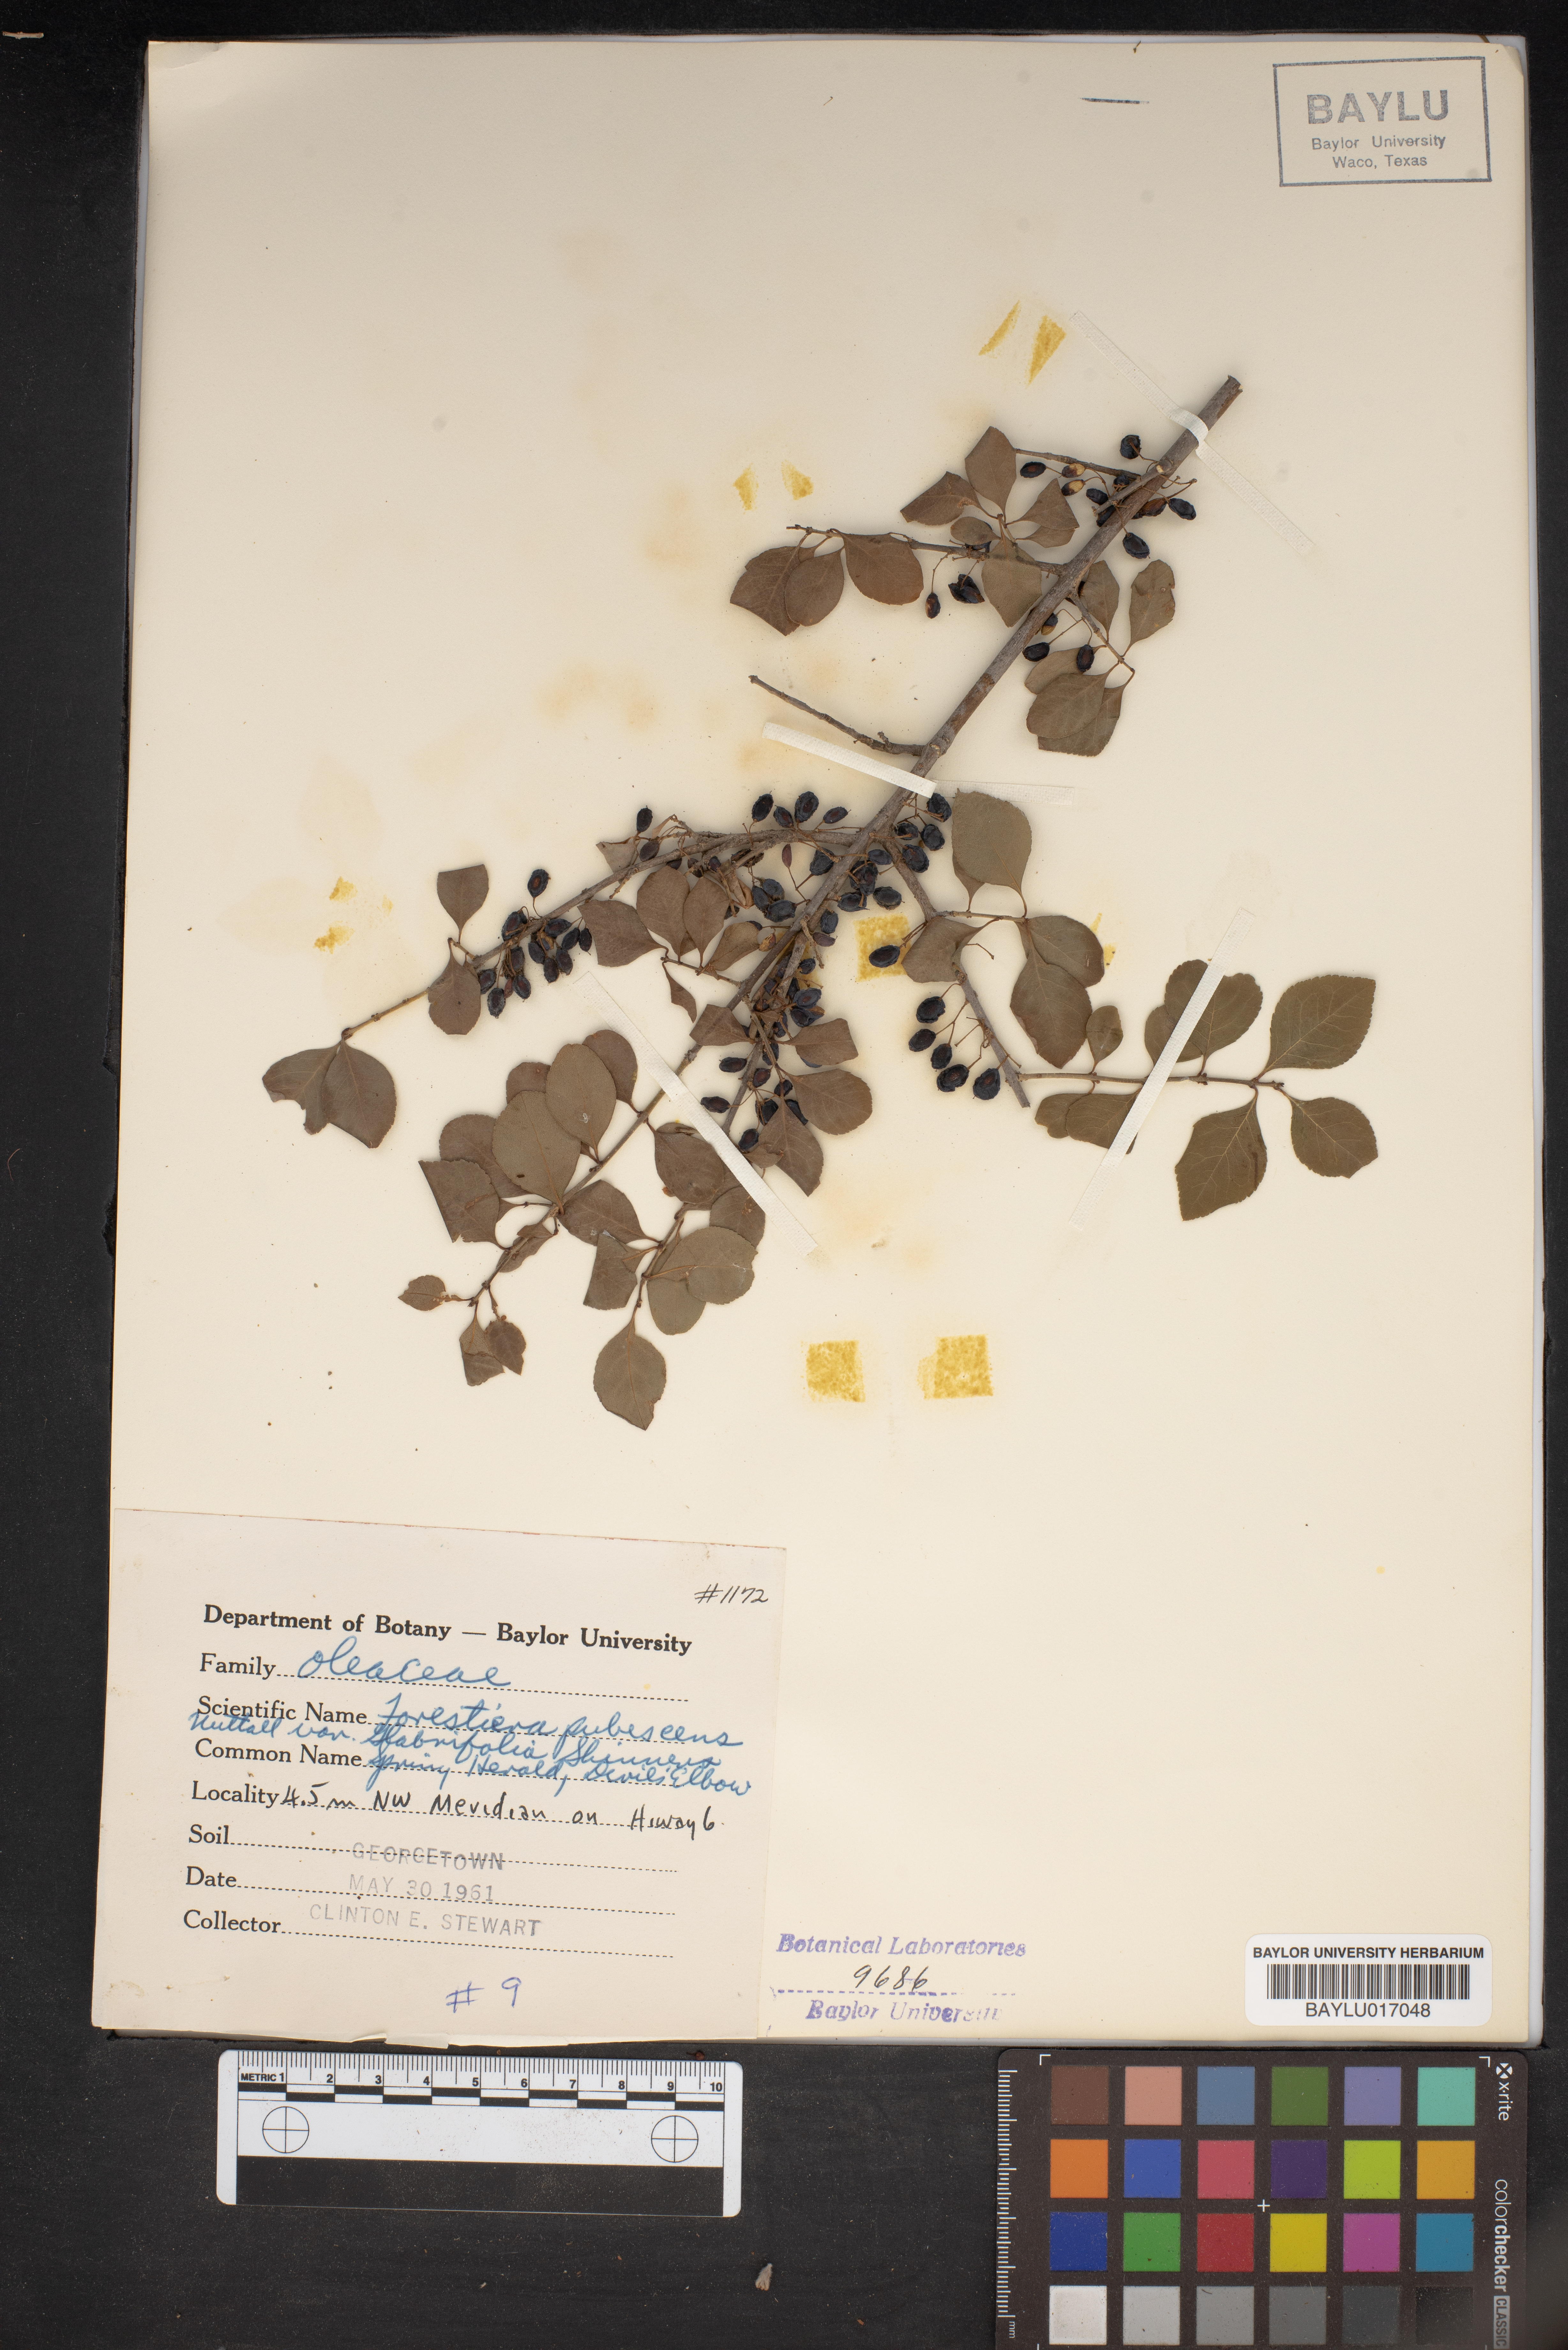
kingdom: Plantae
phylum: Tracheophyta
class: Magnoliopsida
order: Lamiales
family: Oleaceae
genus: Forestiera
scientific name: Forestiera pubescens
